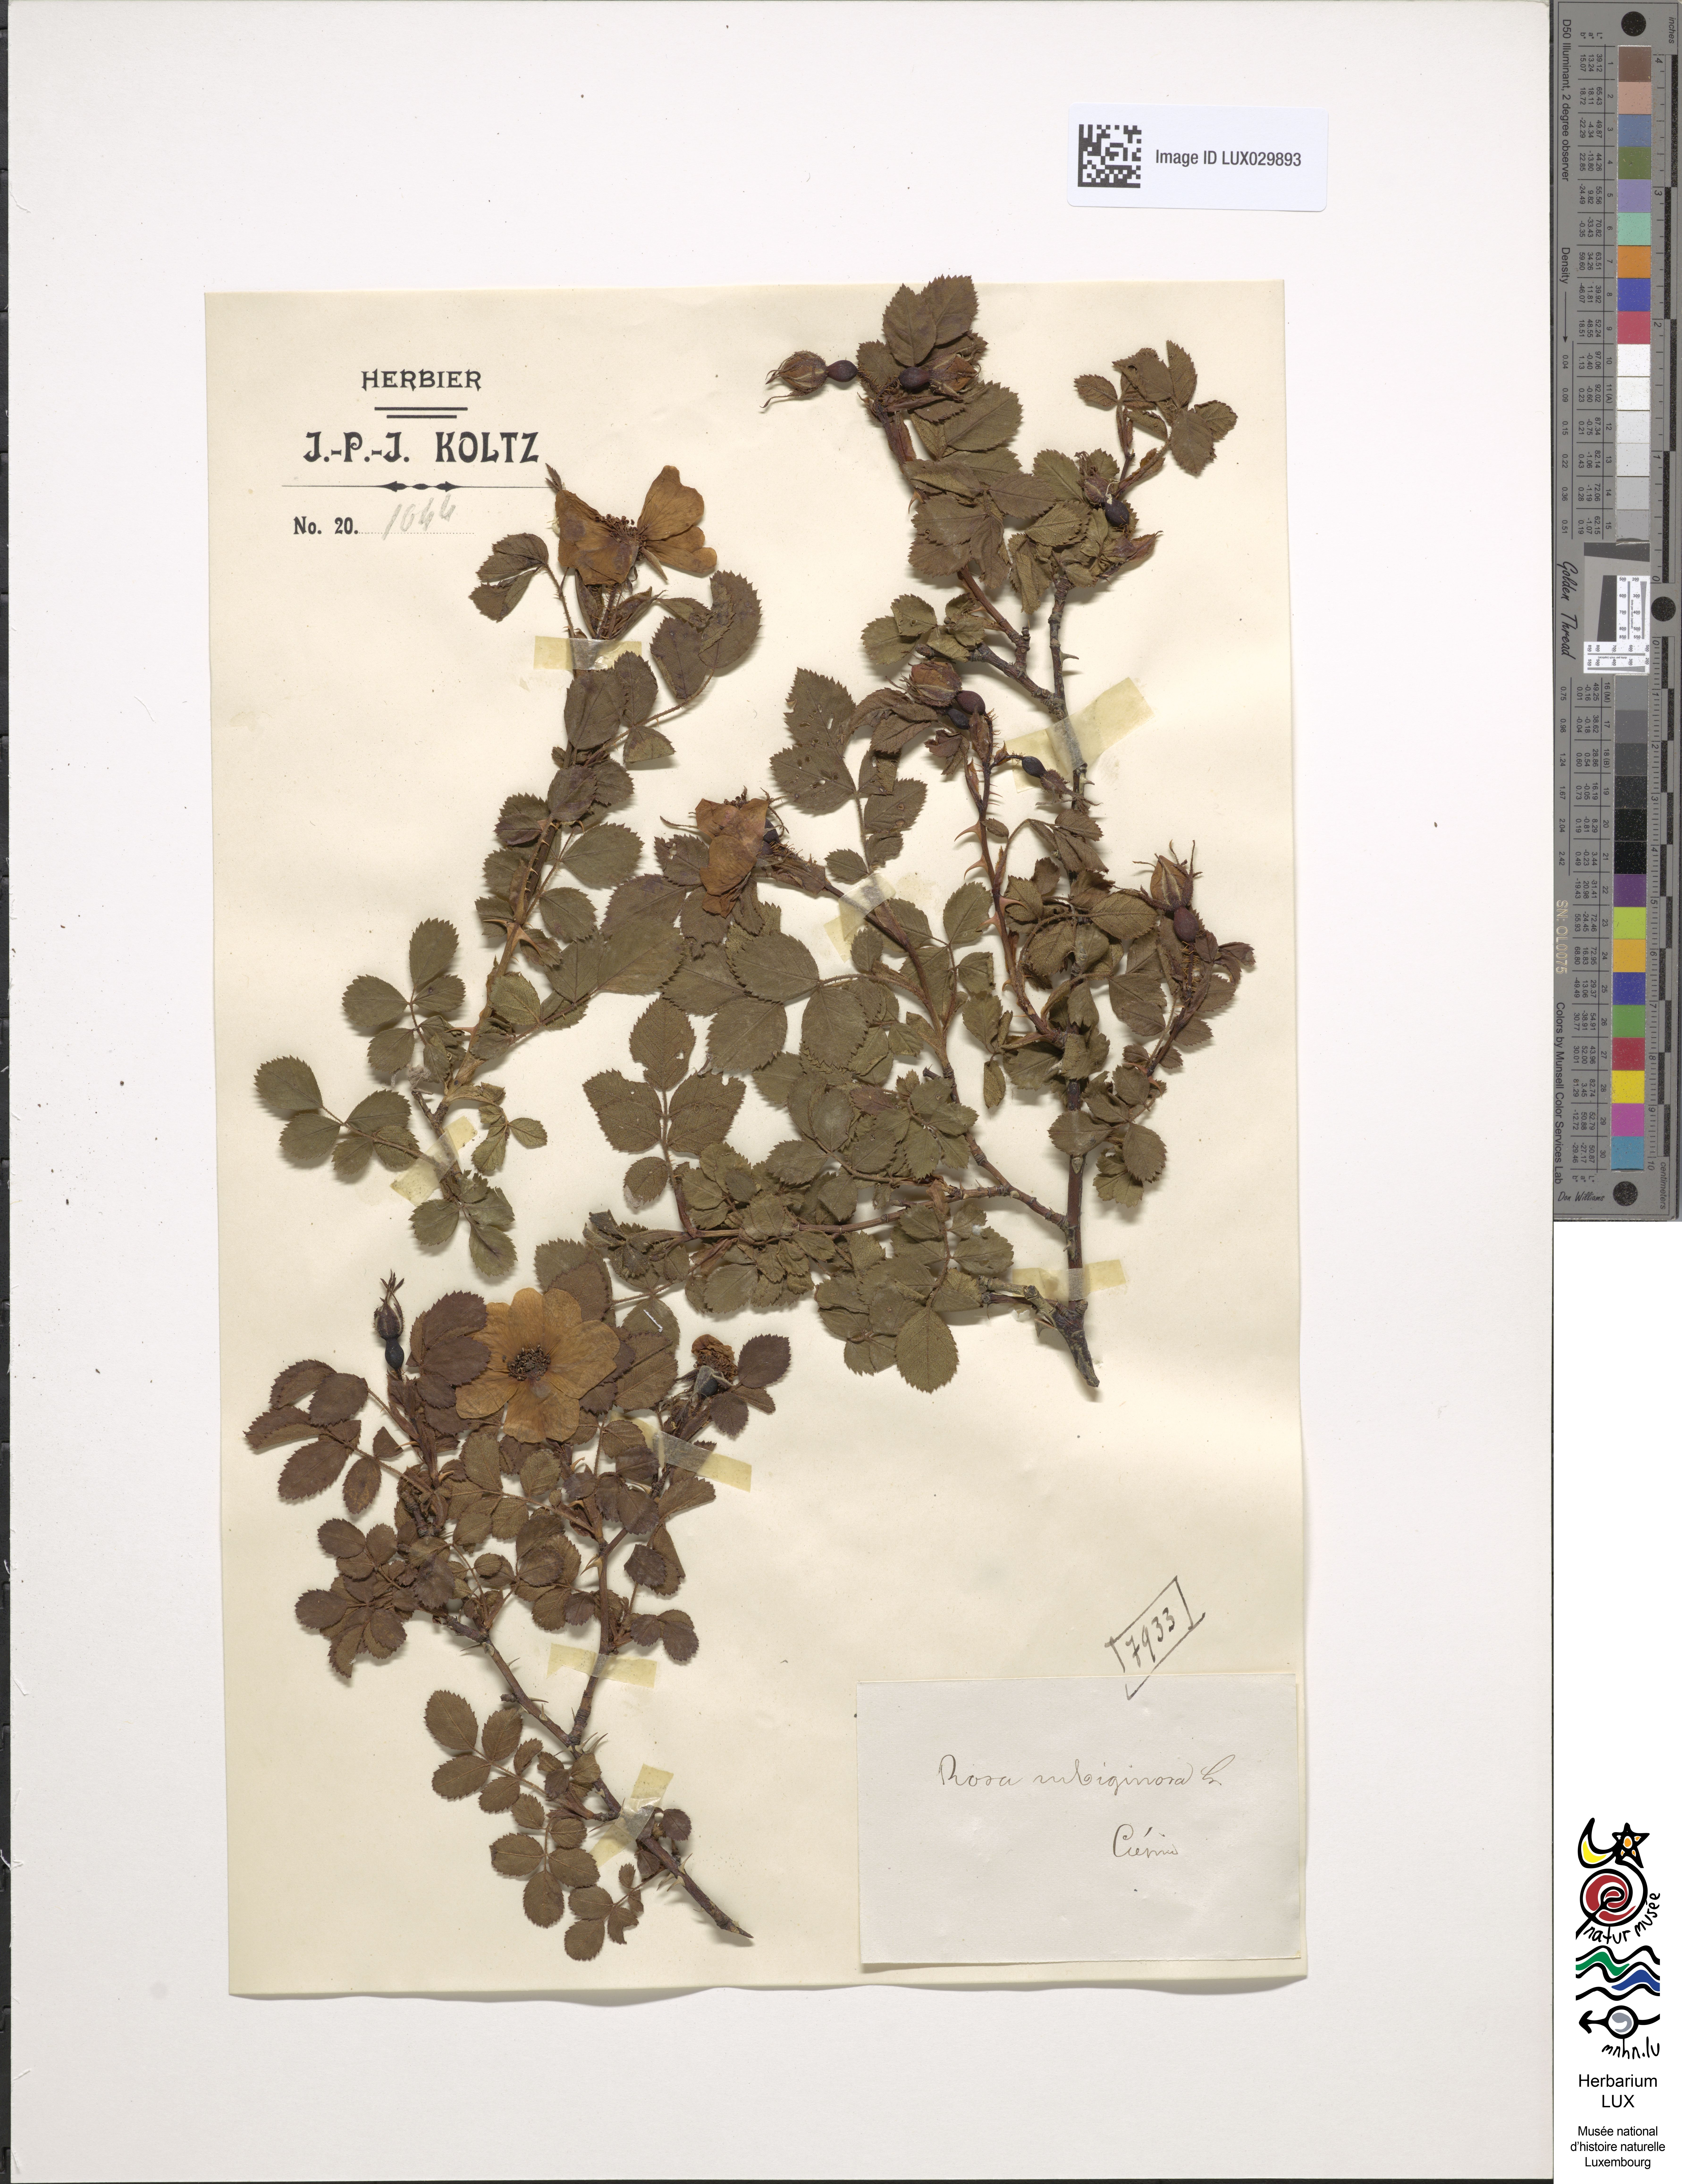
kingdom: Plantae
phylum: Tracheophyta
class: Magnoliopsida
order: Rosales
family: Rosaceae
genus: Rosa
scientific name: Rosa rubiginosa
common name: Sweet-briar
